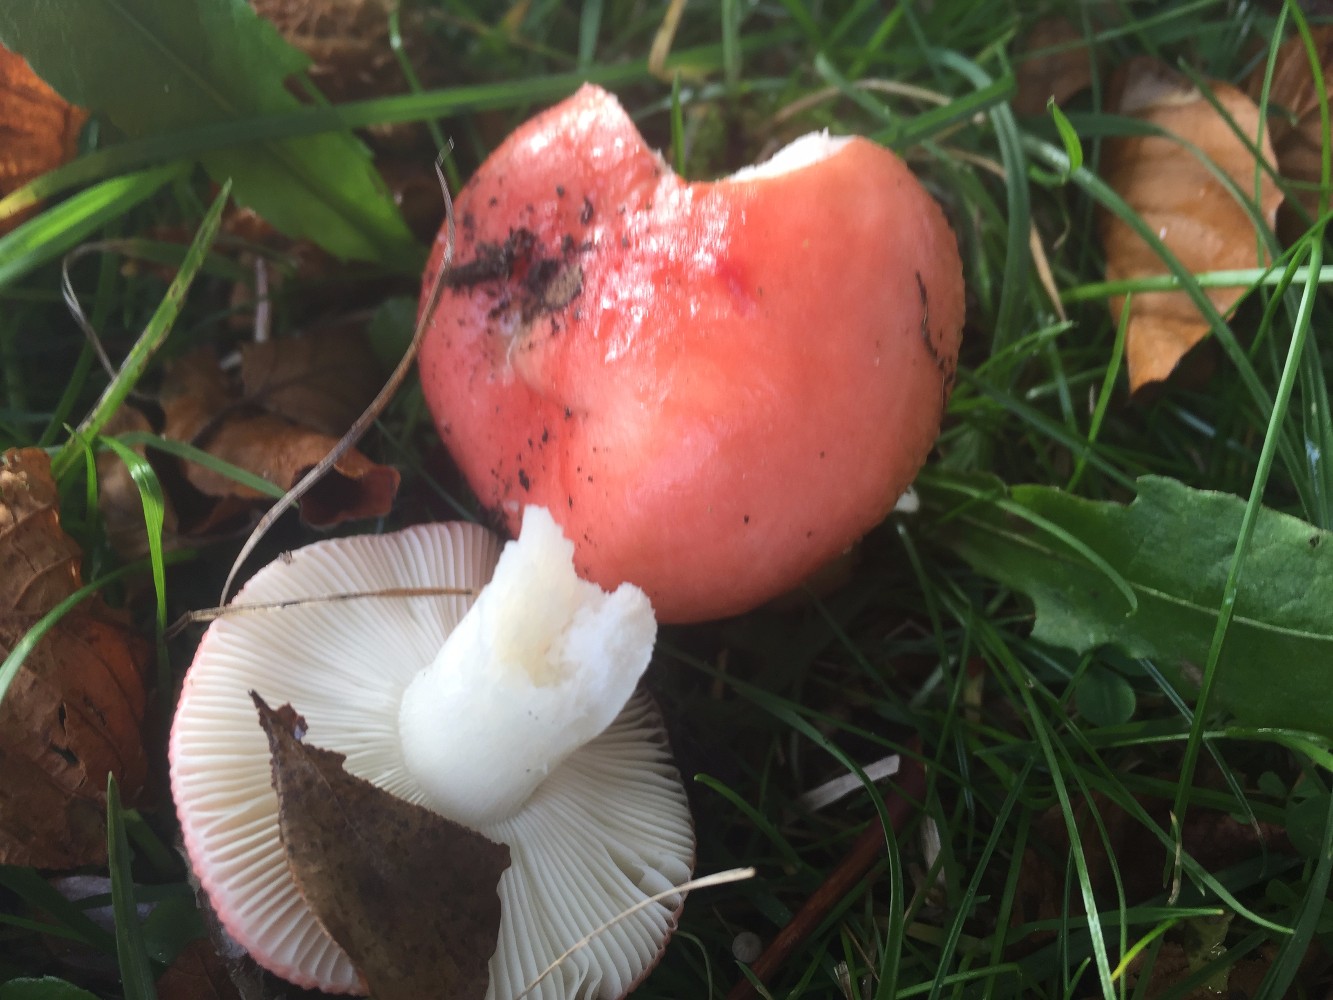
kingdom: Fungi
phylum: Basidiomycota
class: Agaricomycetes
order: Russulales
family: Russulaceae
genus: Russula
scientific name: Russula nobilis
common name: lille gift-skørhat
